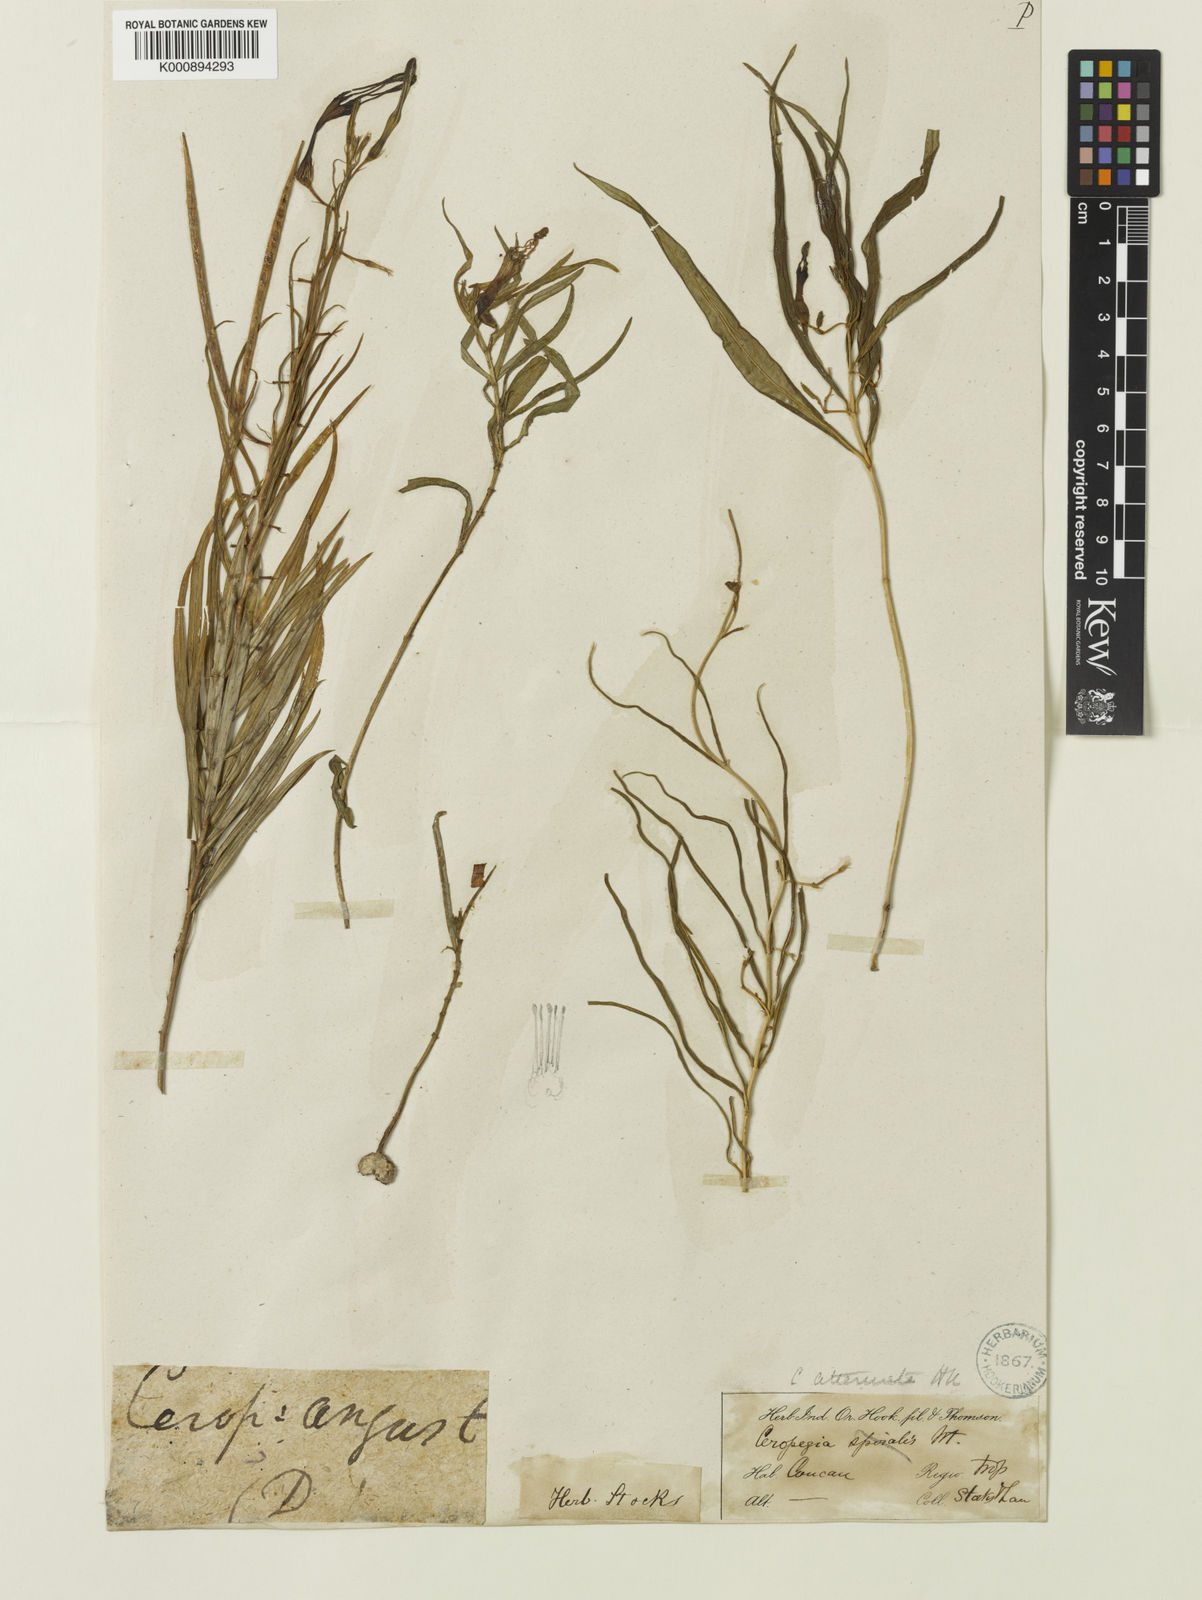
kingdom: Plantae
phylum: Tracheophyta
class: Magnoliopsida
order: Gentianales
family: Apocynaceae
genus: Ceropegia
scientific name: Ceropegia attenuata
